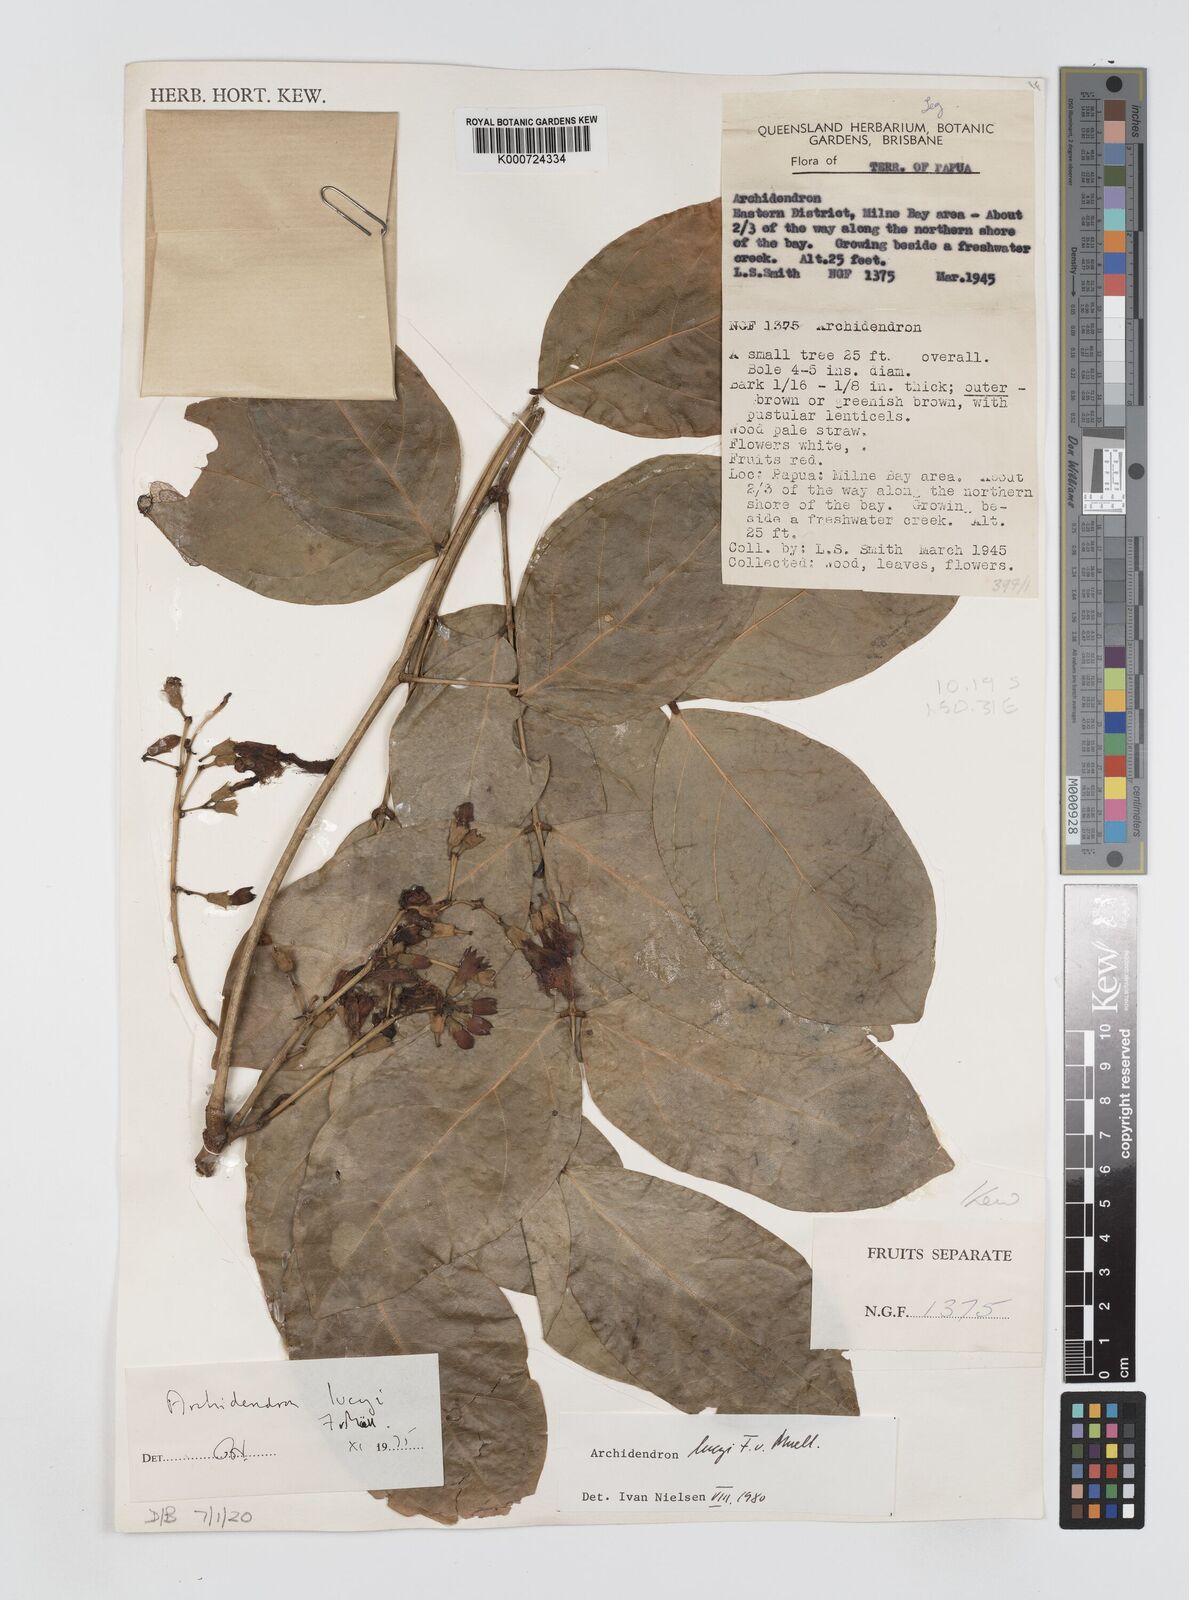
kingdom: Plantae
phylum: Tracheophyta
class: Magnoliopsida
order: Fabales
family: Fabaceae
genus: Archidendron
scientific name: Archidendron lucyi
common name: Scarlet bean
